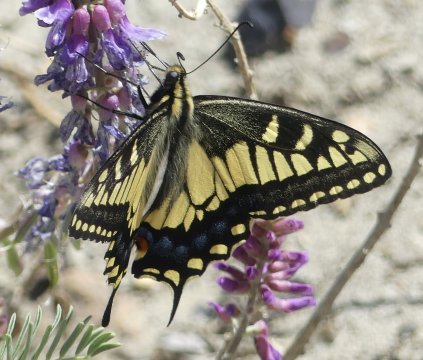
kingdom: Animalia
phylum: Arthropoda
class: Insecta
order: Lepidoptera
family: Papilionidae
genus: Papilio
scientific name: Papilio machaon
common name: Old World Swallowtail
